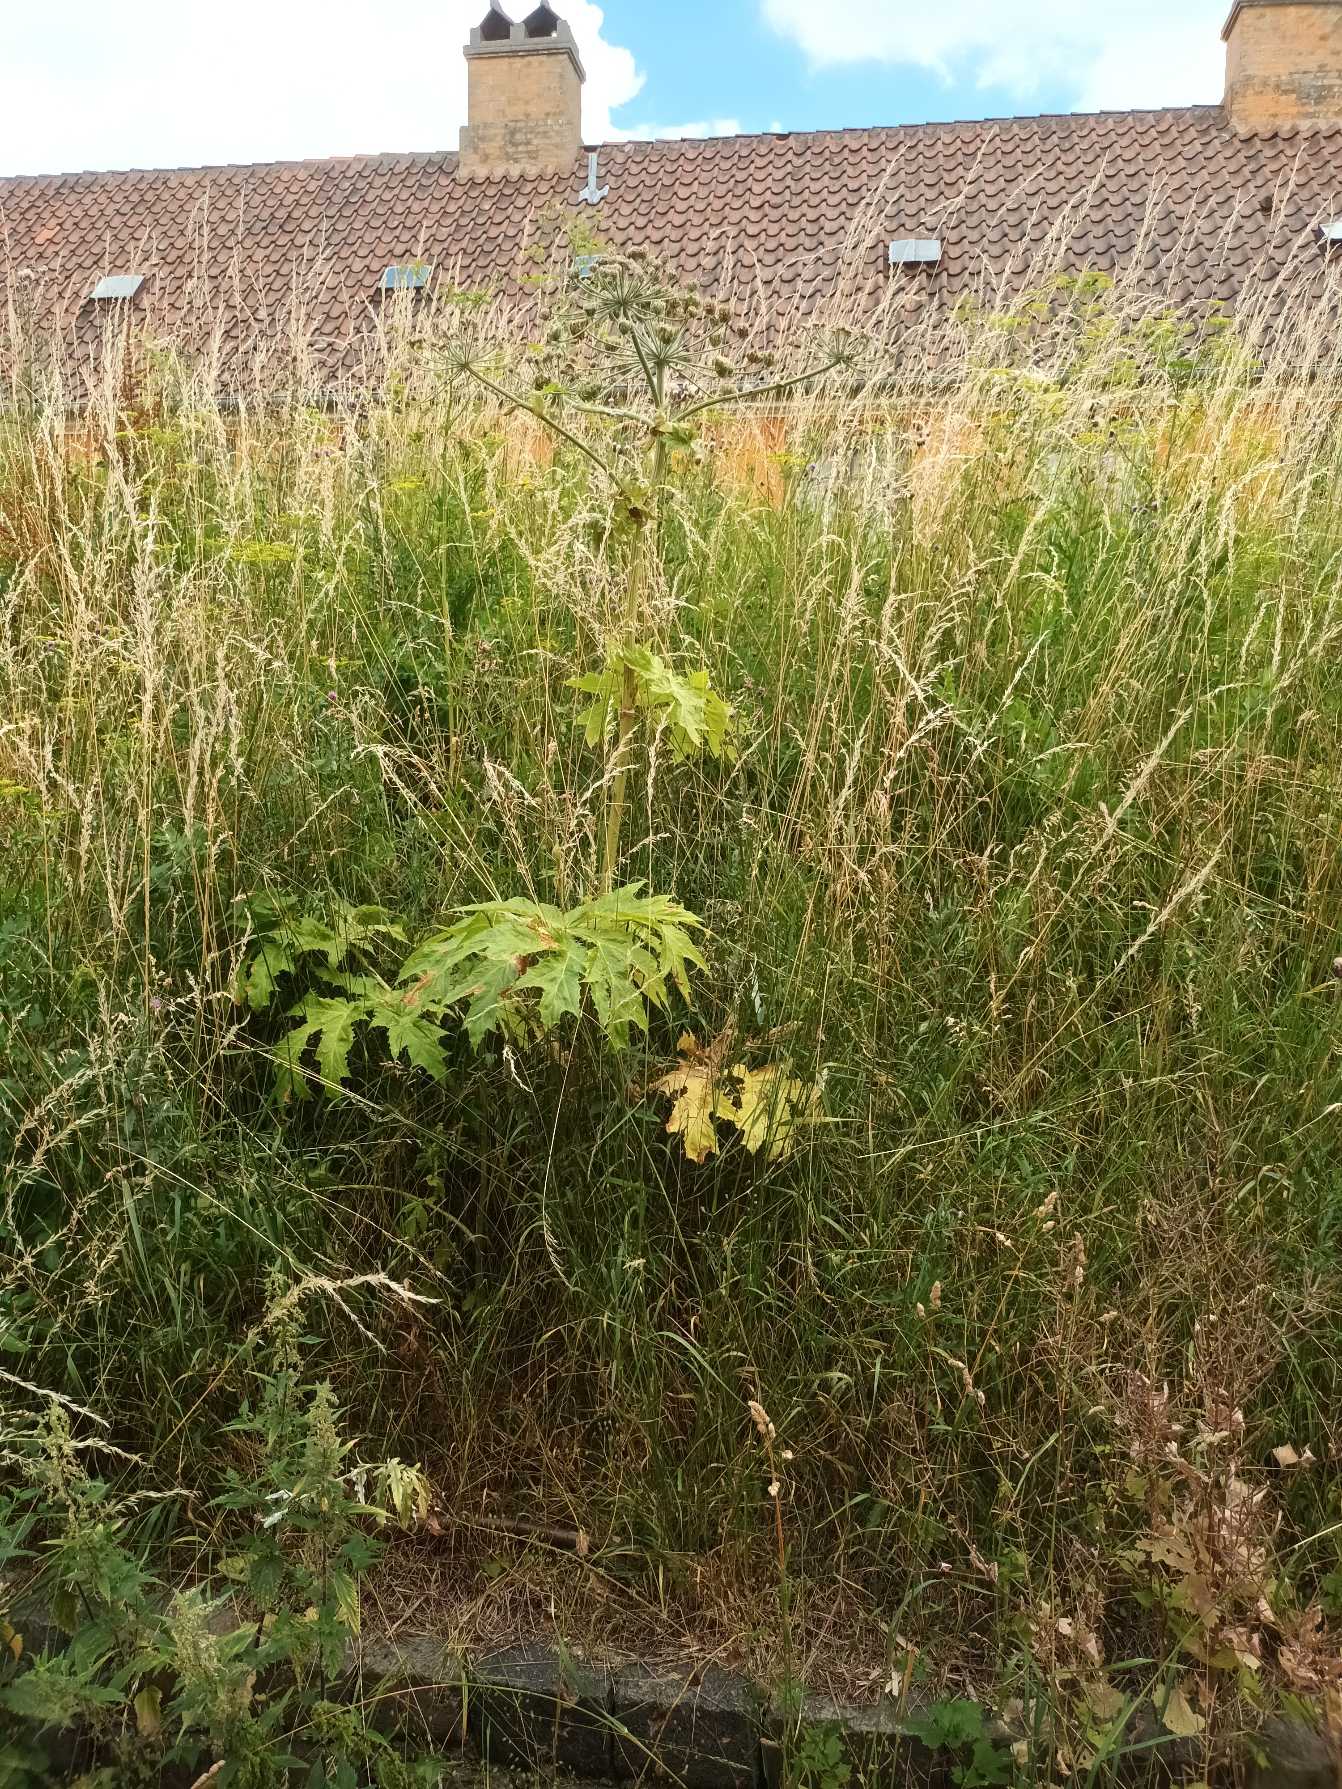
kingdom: Plantae
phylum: Tracheophyta
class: Magnoliopsida
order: Apiales
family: Apiaceae
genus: Heracleum
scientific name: Heracleum mantegazzianum
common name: Kæmpe-bjørneklo
